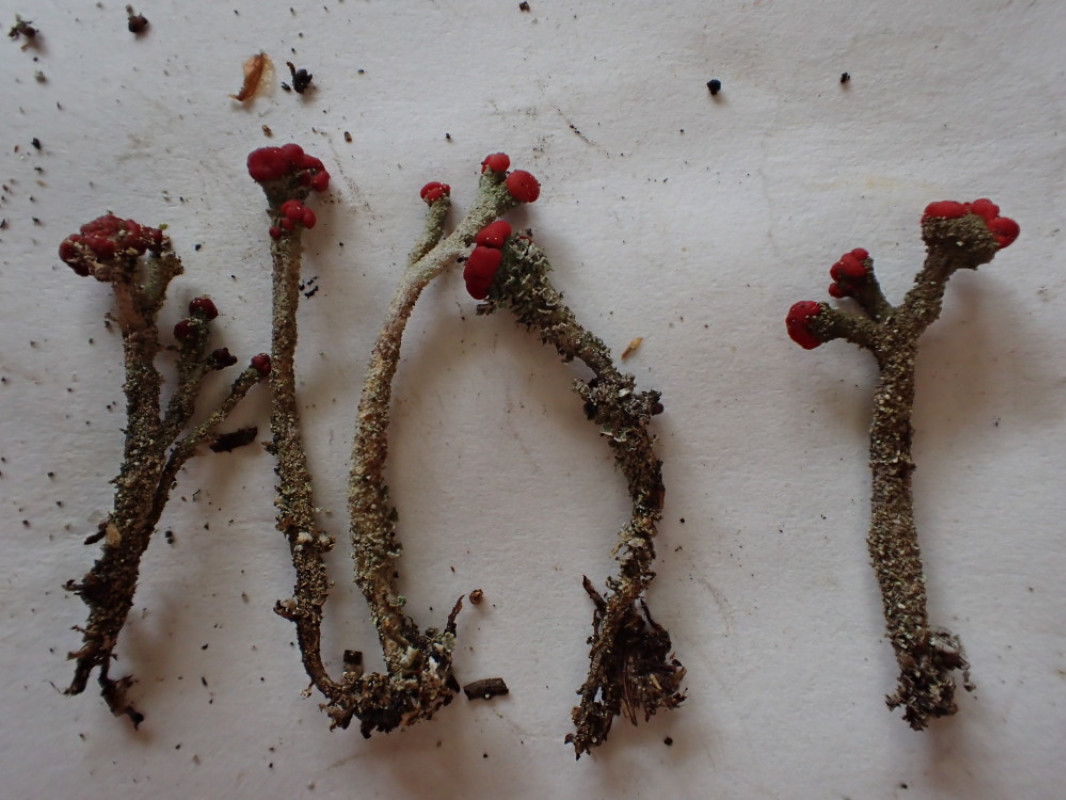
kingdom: Fungi
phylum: Ascomycota
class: Lecanoromycetes
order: Lecanorales
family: Cladoniaceae
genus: Cladonia
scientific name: Cladonia floerkeana
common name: lakrød bægerlav
